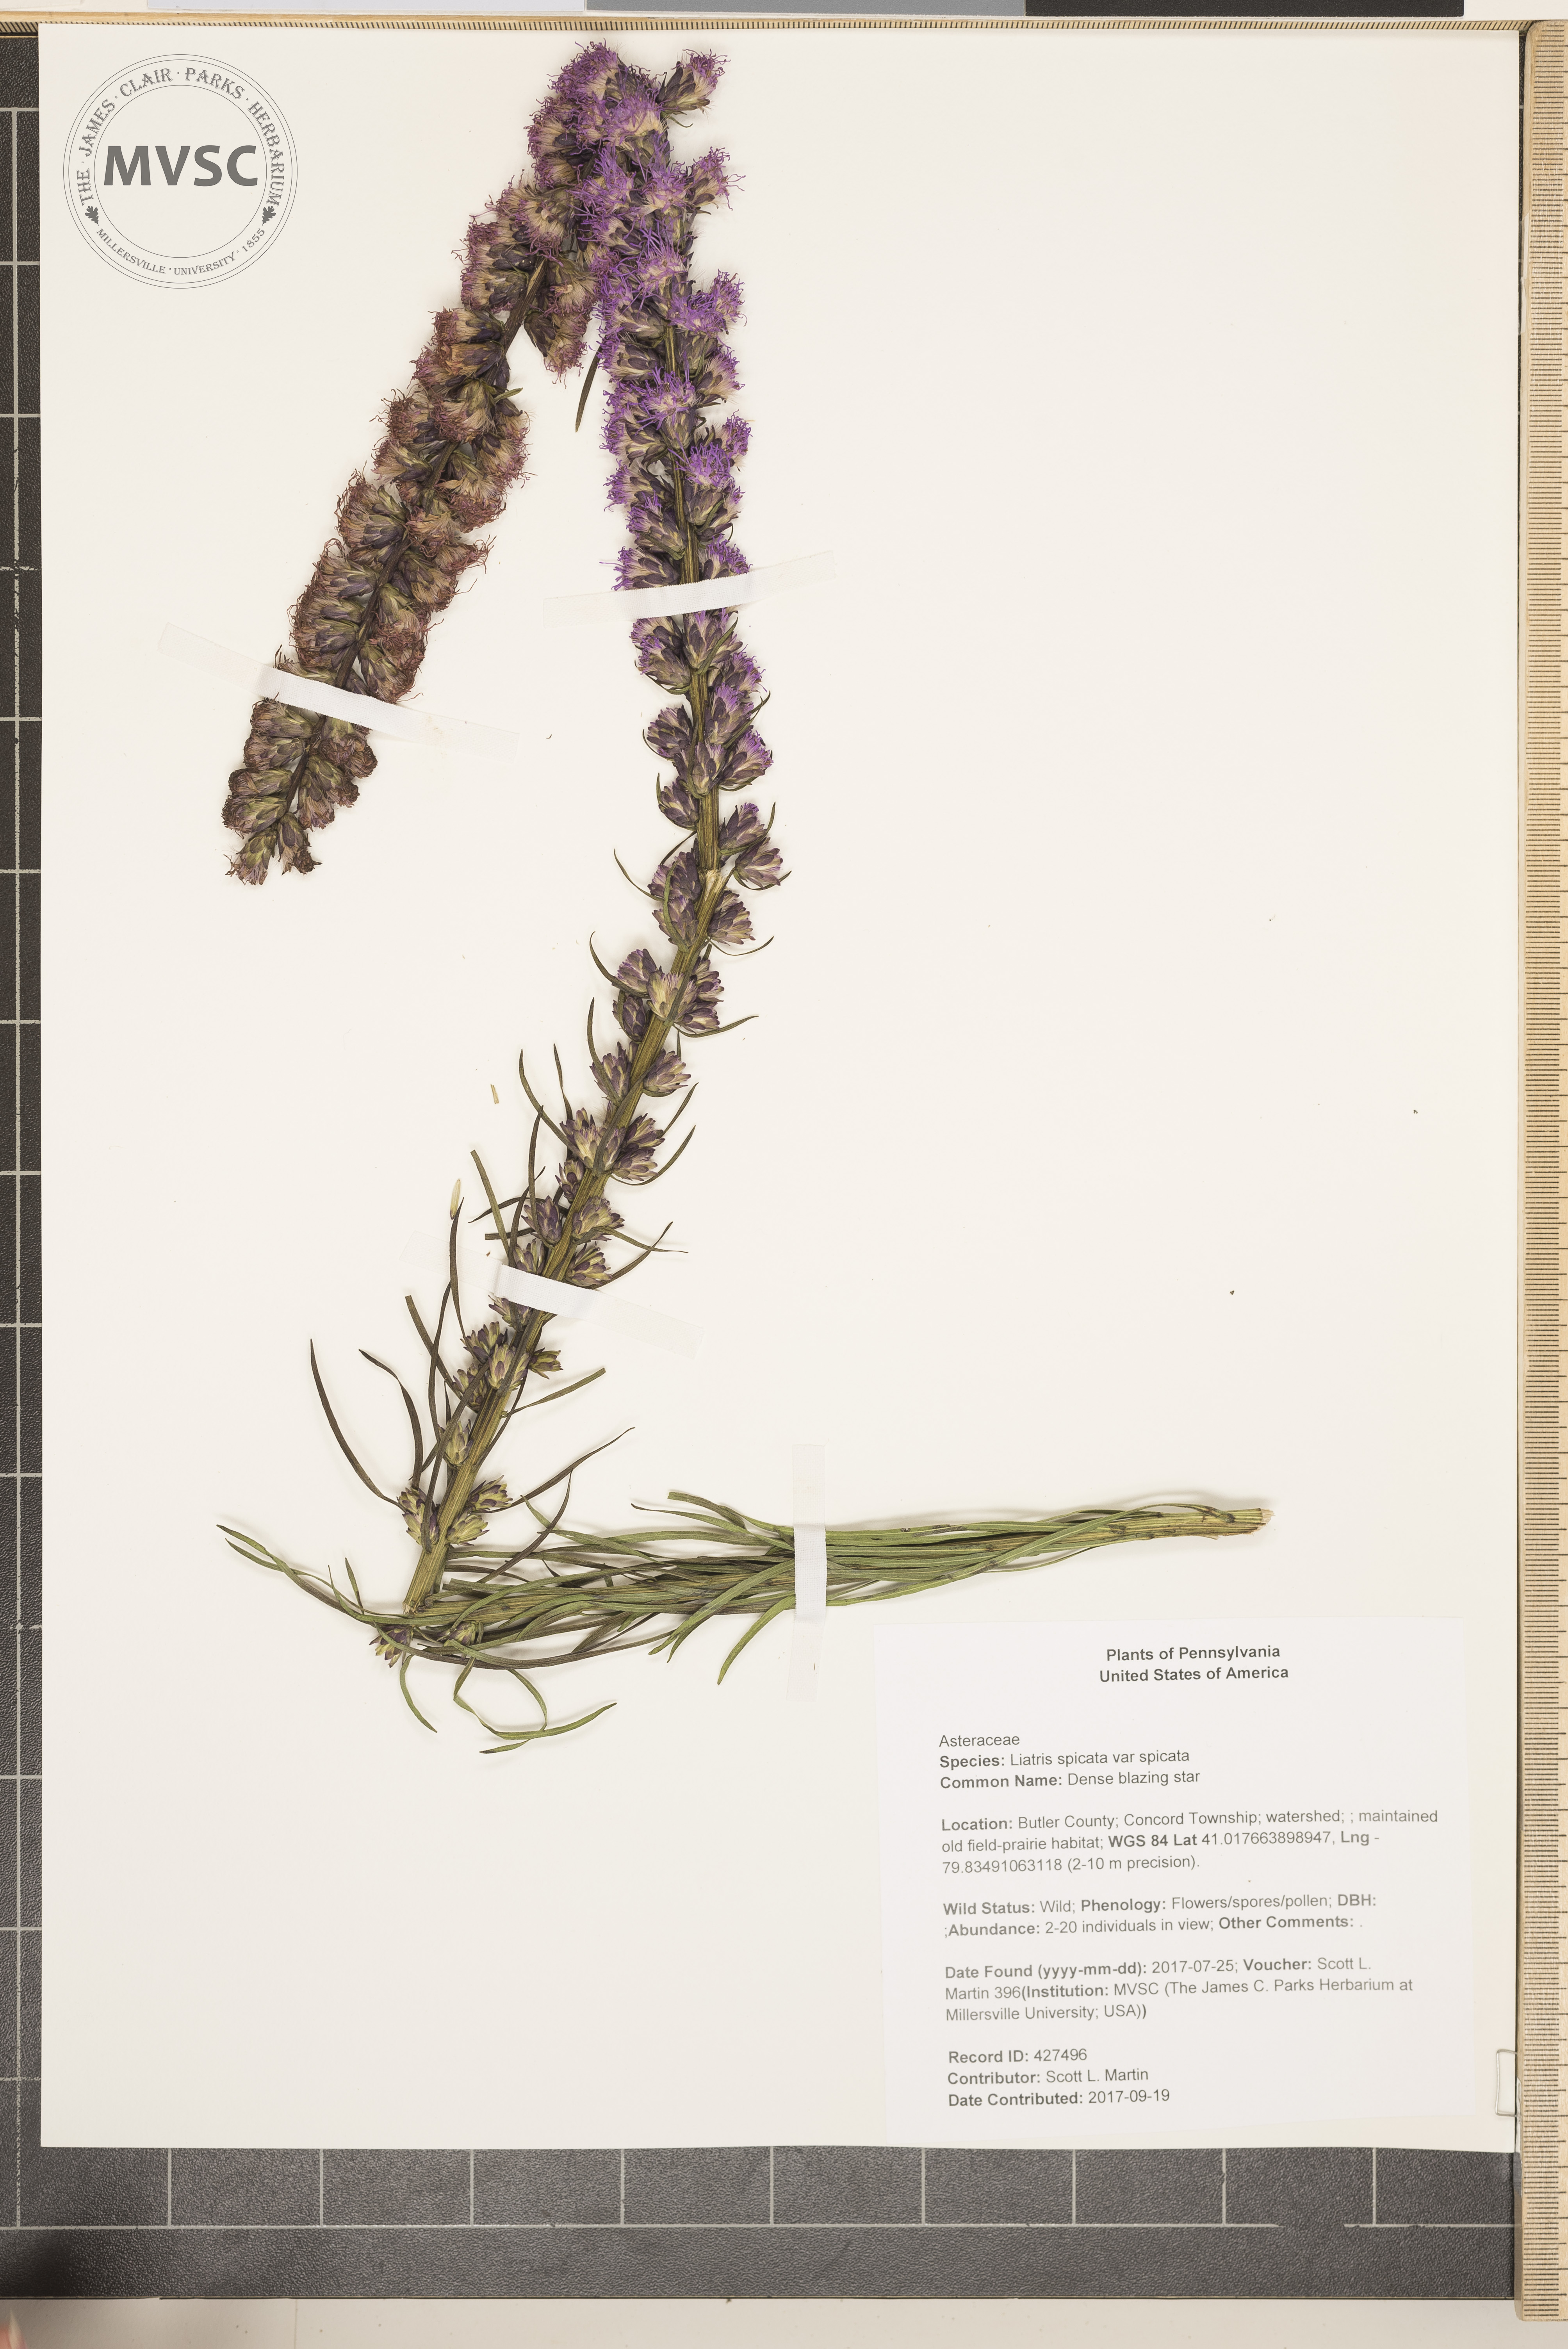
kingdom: Plantae
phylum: Tracheophyta
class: Magnoliopsida
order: Asterales
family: Asteraceae
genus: Liatris
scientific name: Liatris spicata
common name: Dense blazing star
